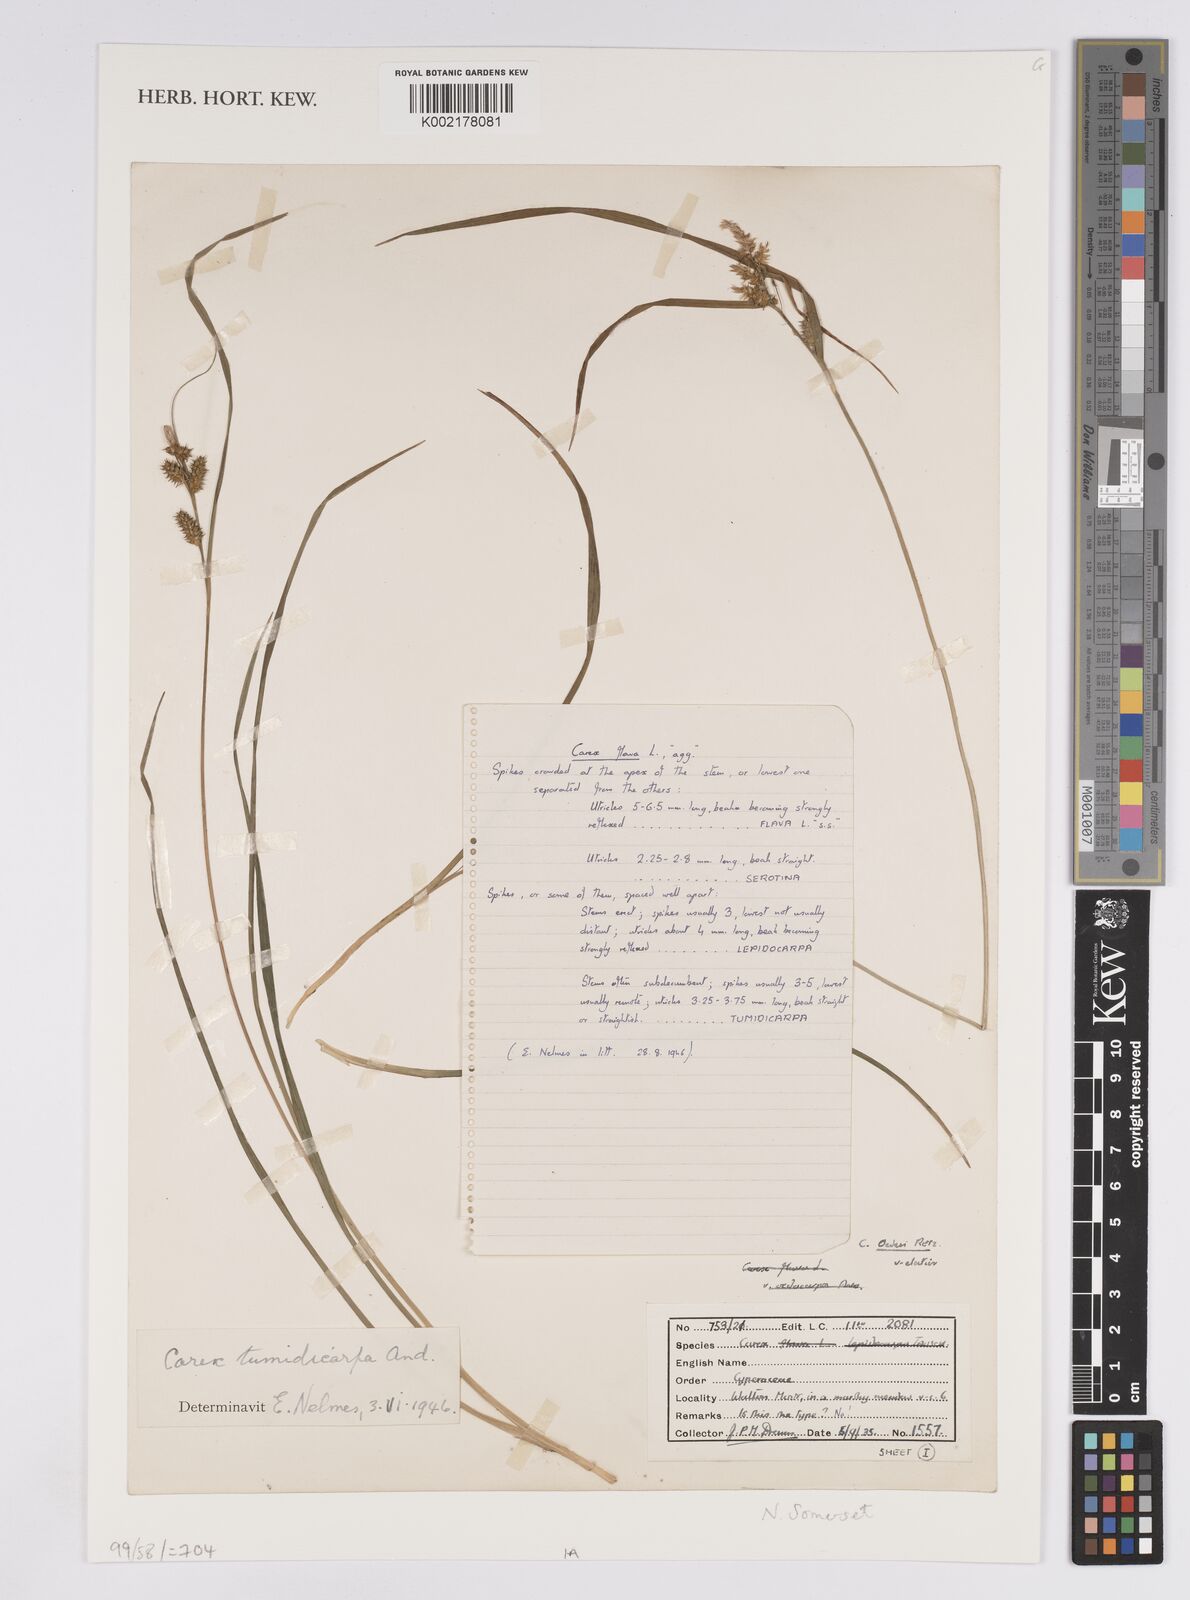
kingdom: Plantae
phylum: Tracheophyta
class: Liliopsida
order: Poales
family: Cyperaceae
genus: Carex
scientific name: Carex demissa
